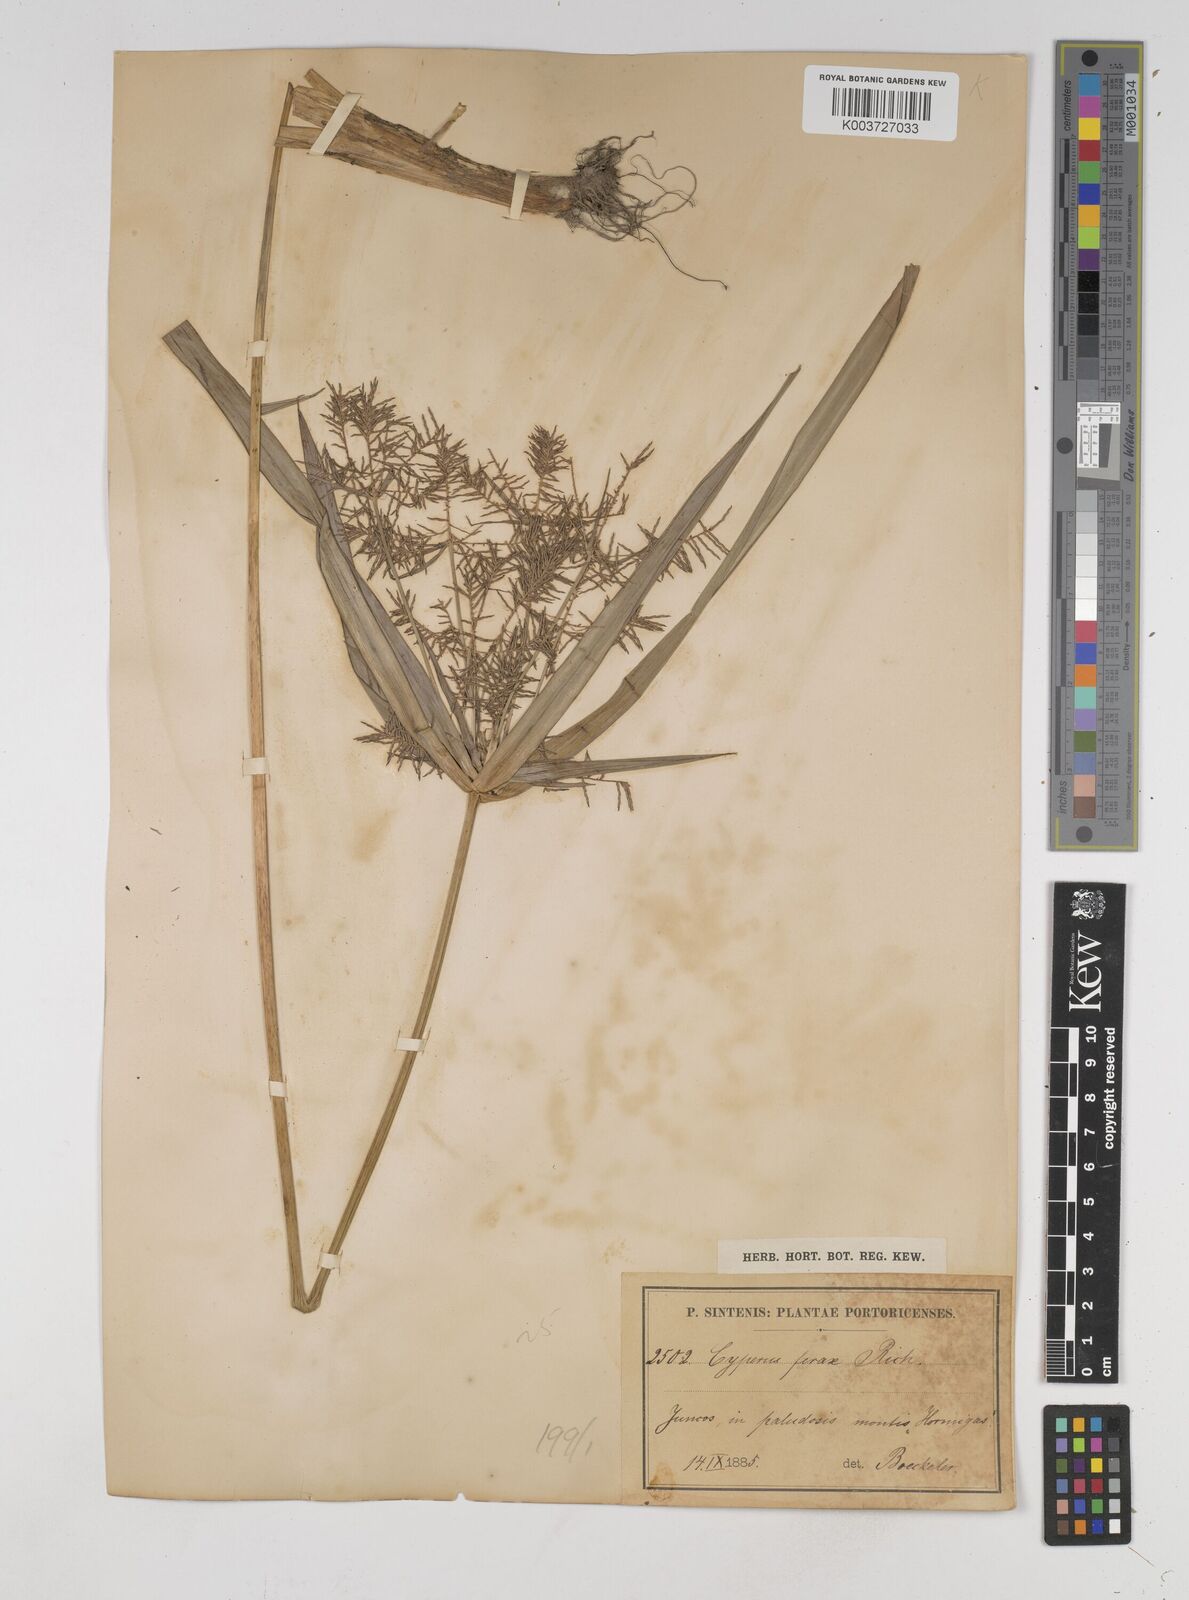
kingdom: Plantae
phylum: Tracheophyta
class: Liliopsida
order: Poales
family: Cyperaceae
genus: Cyperus
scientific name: Cyperus odoratus
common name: Fragrant flatsedge
